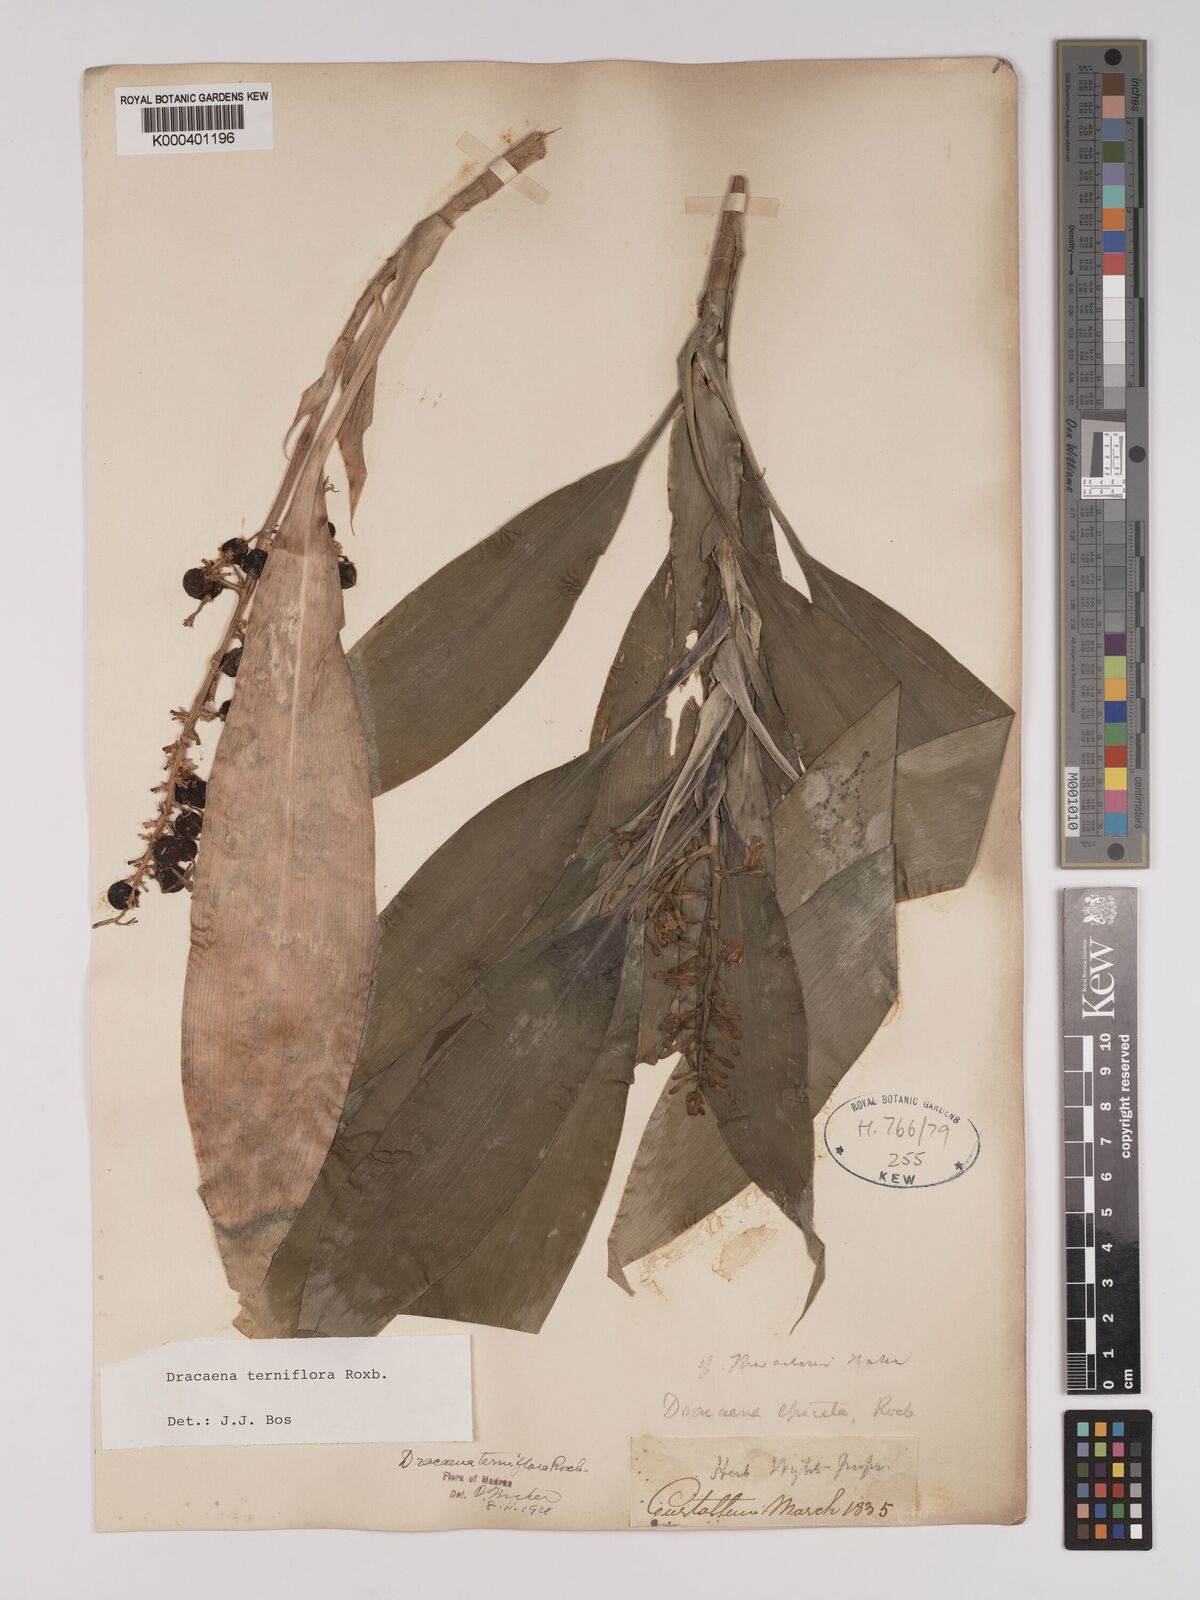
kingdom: Plantae
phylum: Tracheophyta
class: Liliopsida
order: Asparagales
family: Asparagaceae
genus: Dracaena
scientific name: Dracaena terniflora
